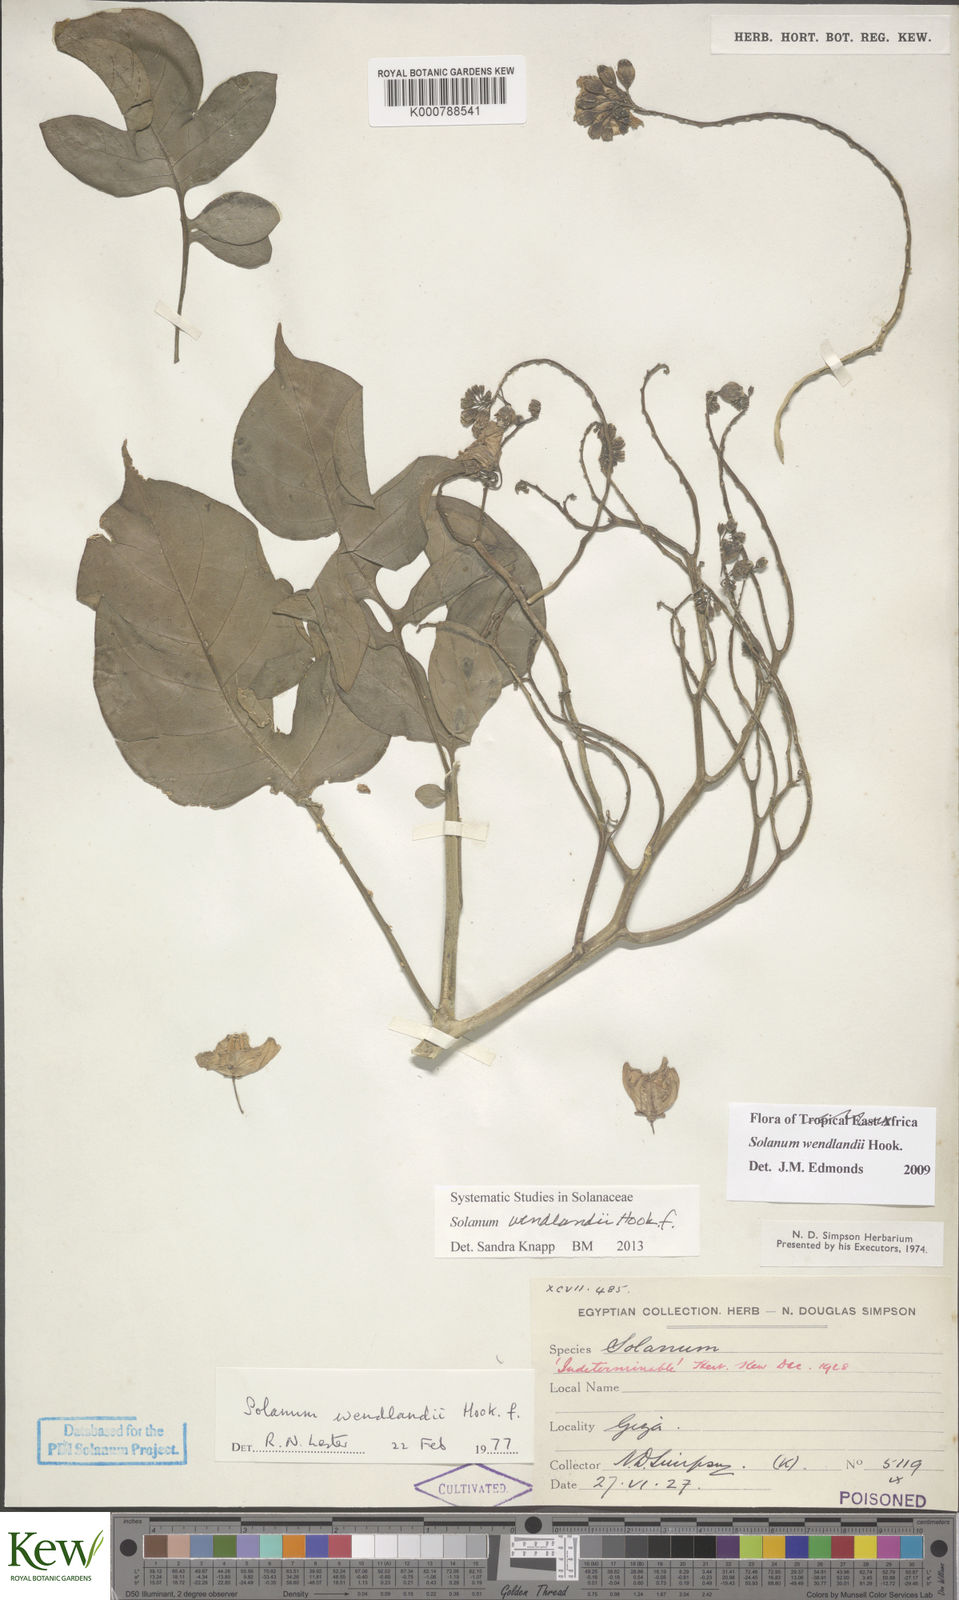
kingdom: Plantae
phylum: Tracheophyta
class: Magnoliopsida
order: Solanales
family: Solanaceae
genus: Solanum
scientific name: Solanum wendlandii
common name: Costa rican nightshade
